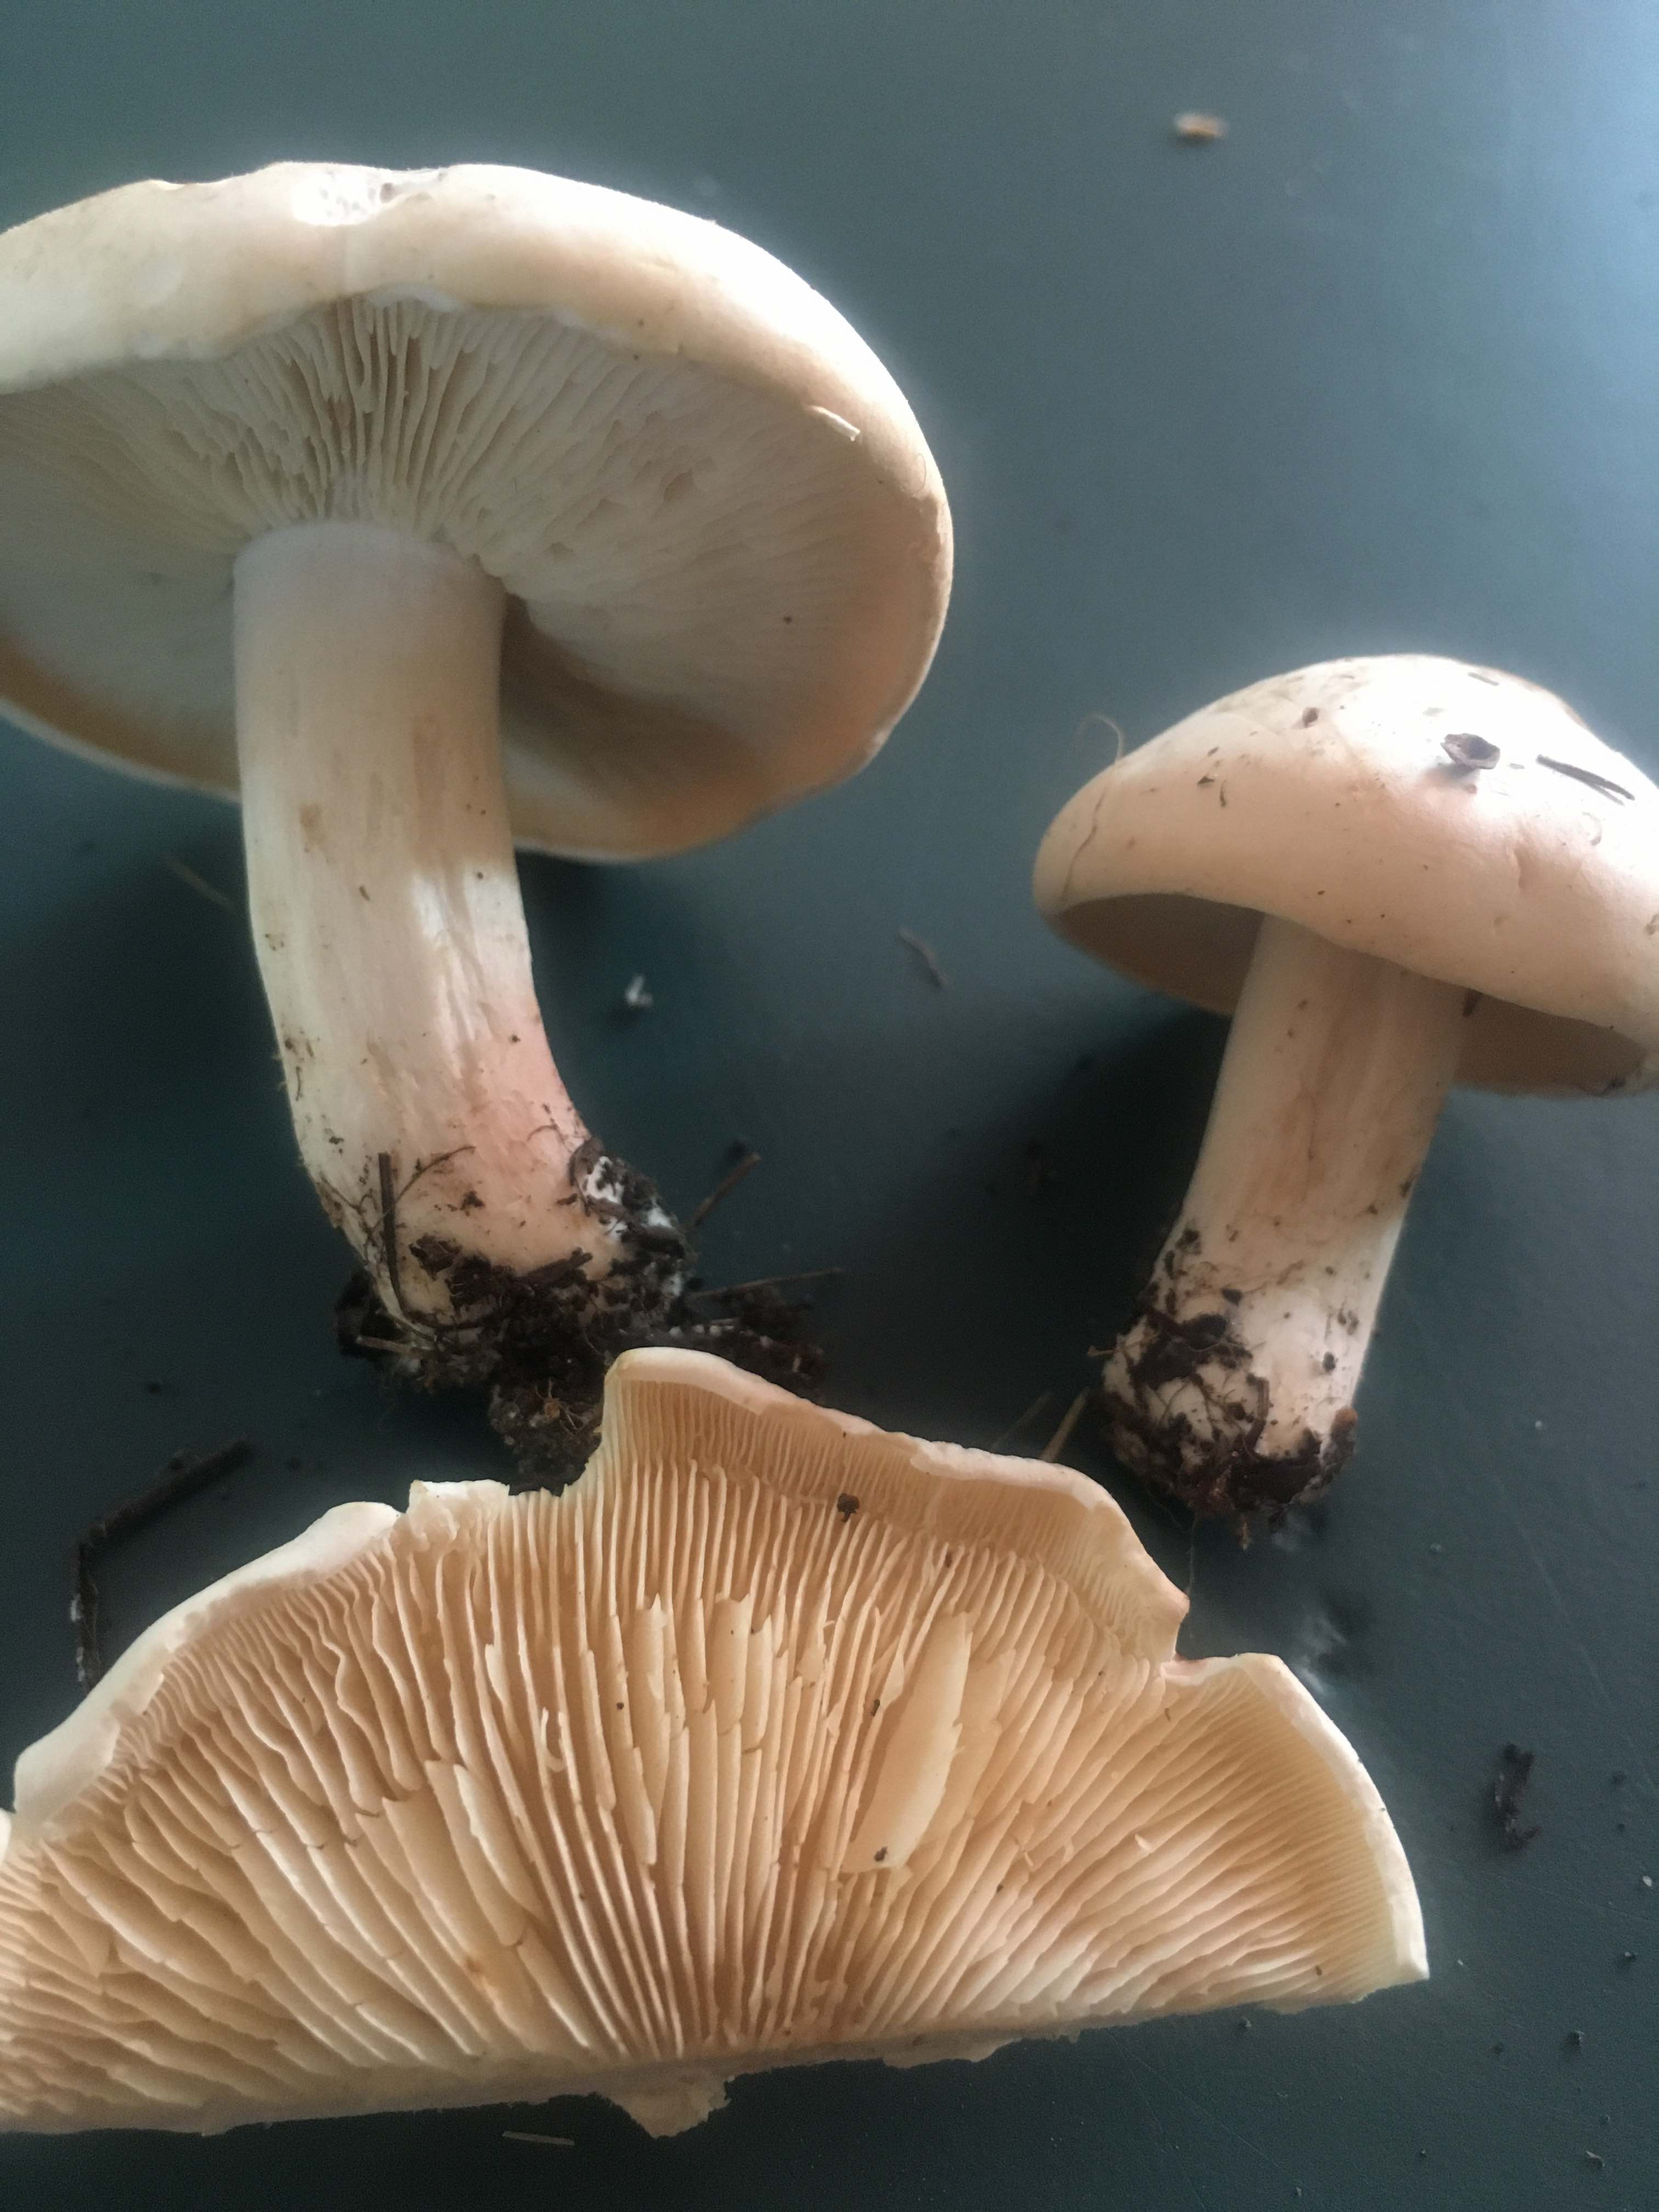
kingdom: Fungi
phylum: Basidiomycota
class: Agaricomycetes
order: Agaricales
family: Lyophyllaceae
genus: Calocybe
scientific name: Calocybe gambosa
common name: vårmusseron
